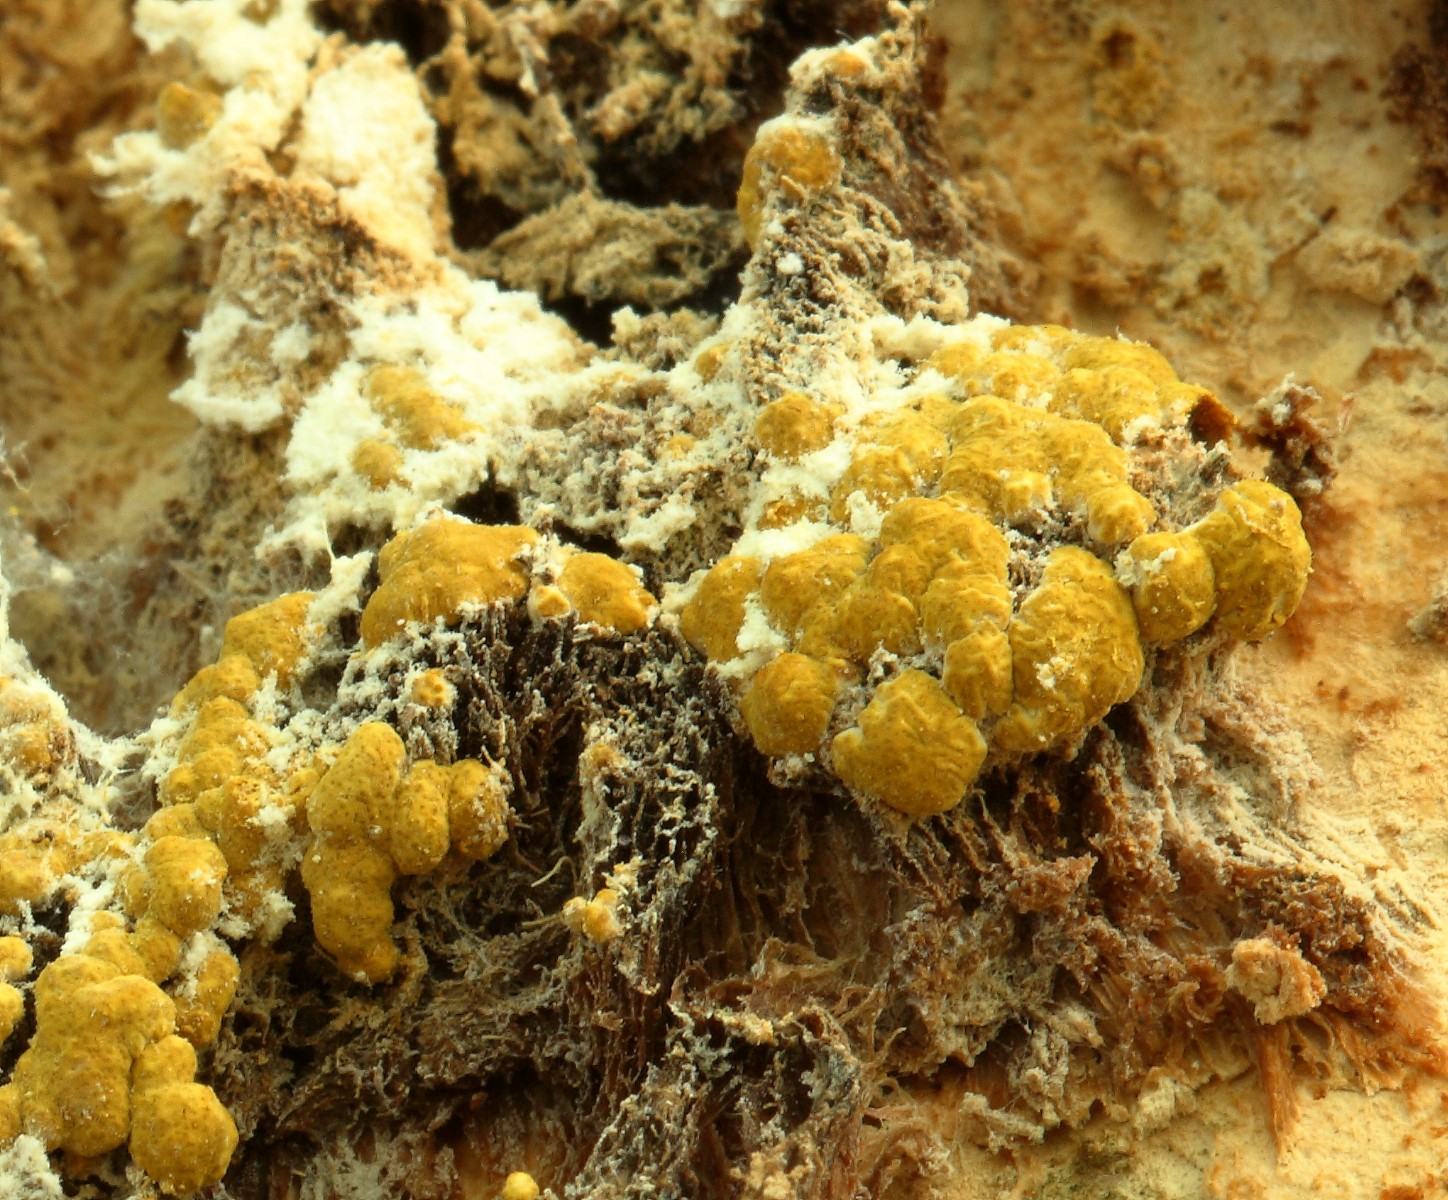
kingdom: Fungi
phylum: Ascomycota
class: Sordariomycetes
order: Hypocreales
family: Hypocreaceae
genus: Trichoderma
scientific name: Trichoderma pulvinatum
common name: snyltende kødkerne
